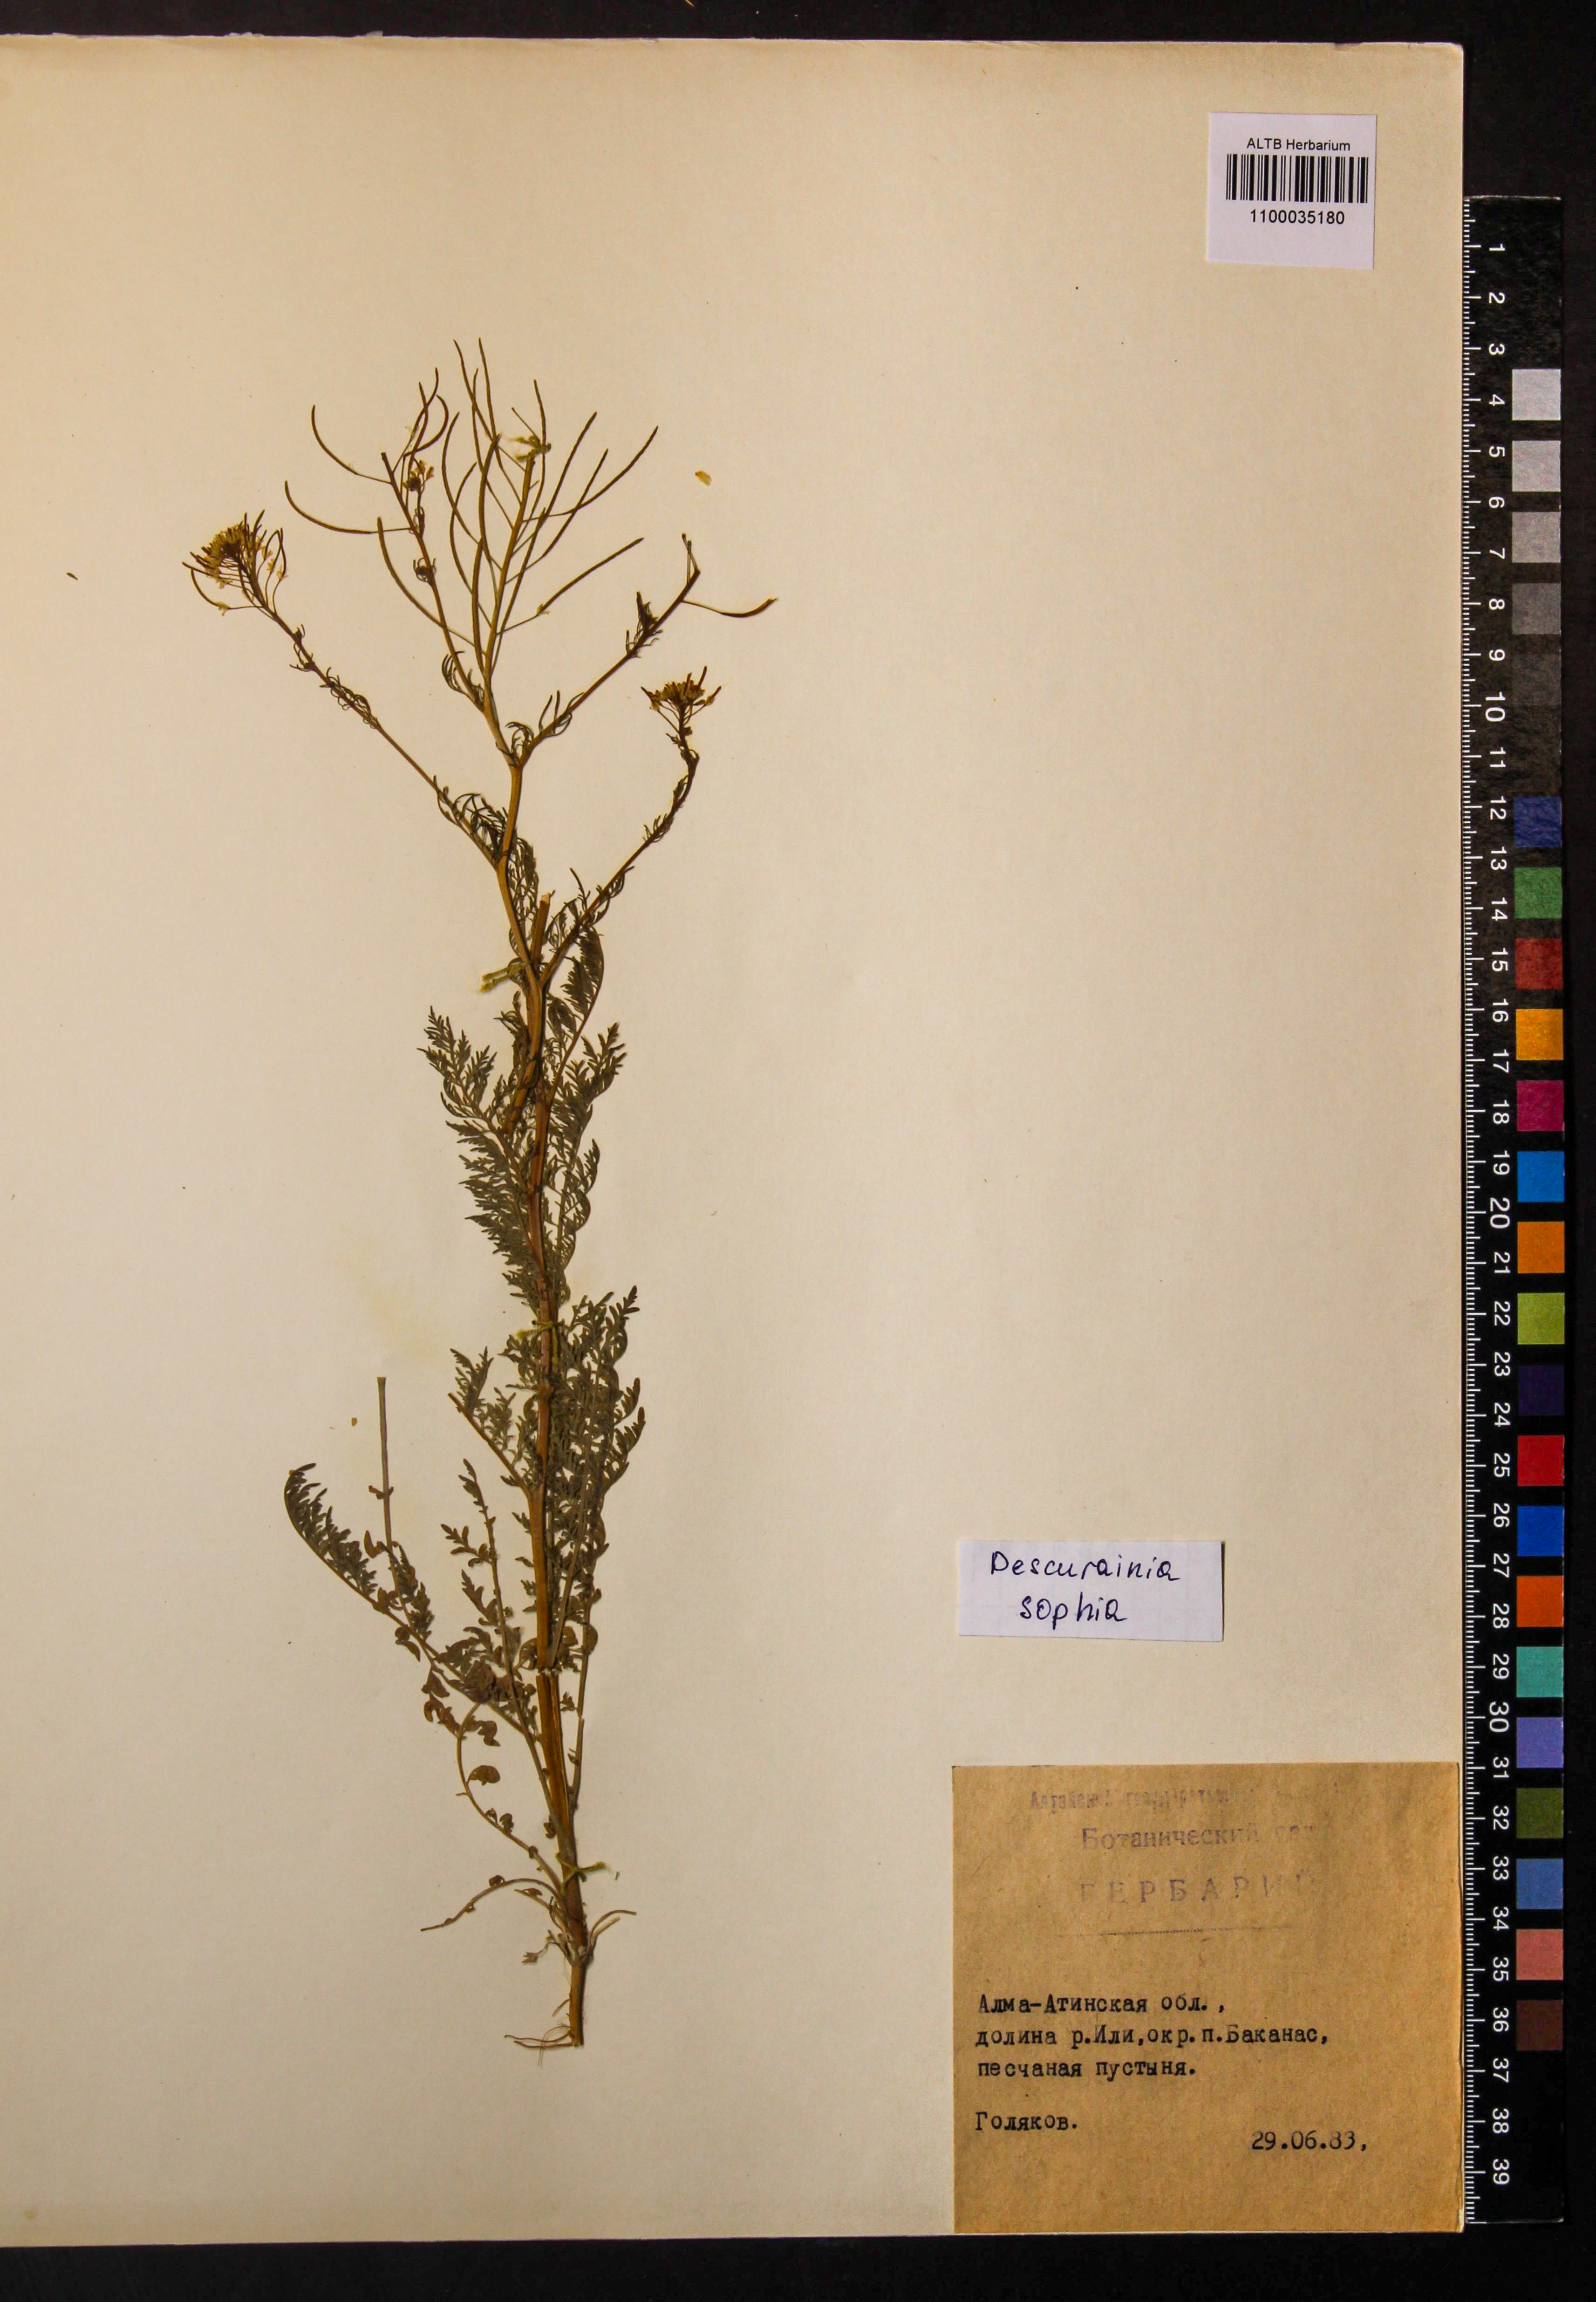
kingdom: Plantae
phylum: Tracheophyta
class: Magnoliopsida
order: Brassicales
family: Brassicaceae
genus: Descurainia
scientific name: Descurainia sophia
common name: Flixweed
